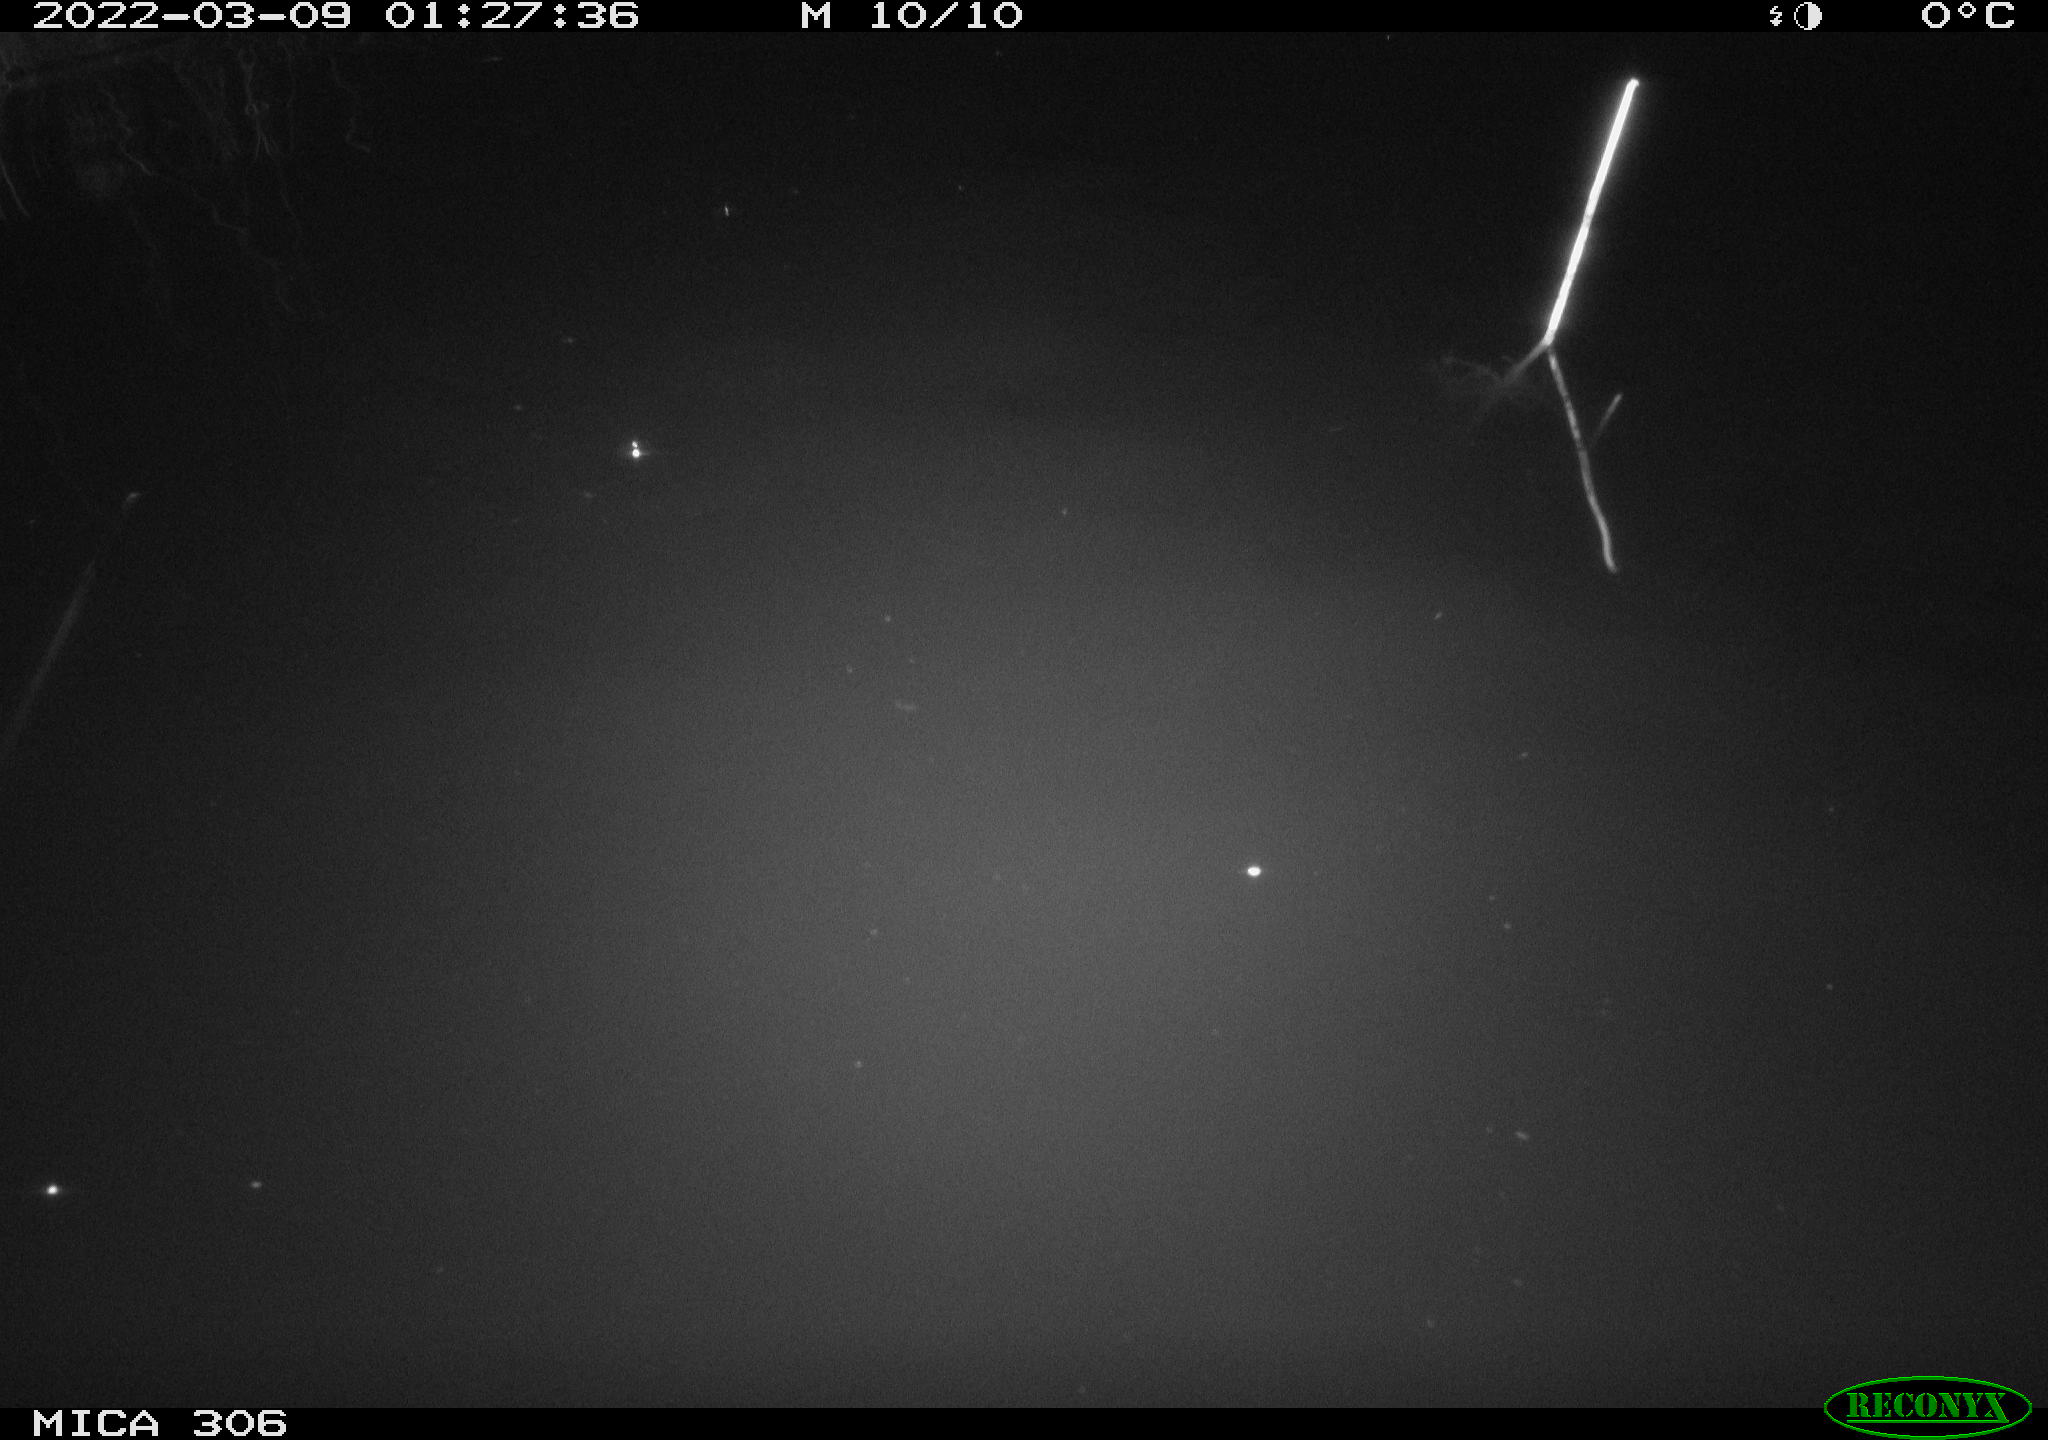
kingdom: Animalia
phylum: Chordata
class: Mammalia
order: Rodentia
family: Cricetidae
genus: Ondatra
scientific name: Ondatra zibethicus
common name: Muskrat
